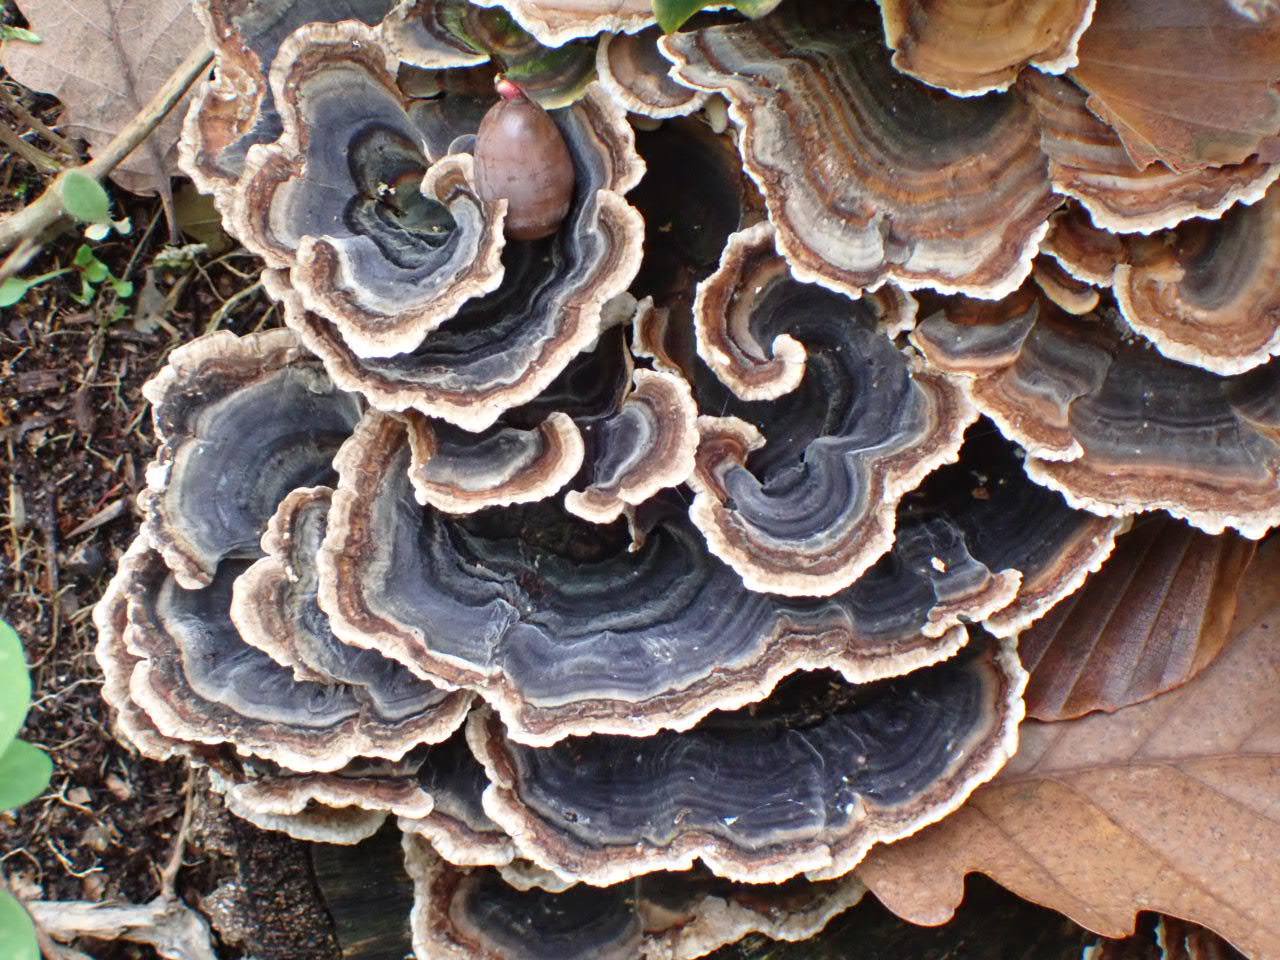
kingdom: Fungi
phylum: Basidiomycota
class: Agaricomycetes
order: Polyporales
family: Polyporaceae
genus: Trametes
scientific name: Trametes versicolor
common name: broget læderporesvamp
